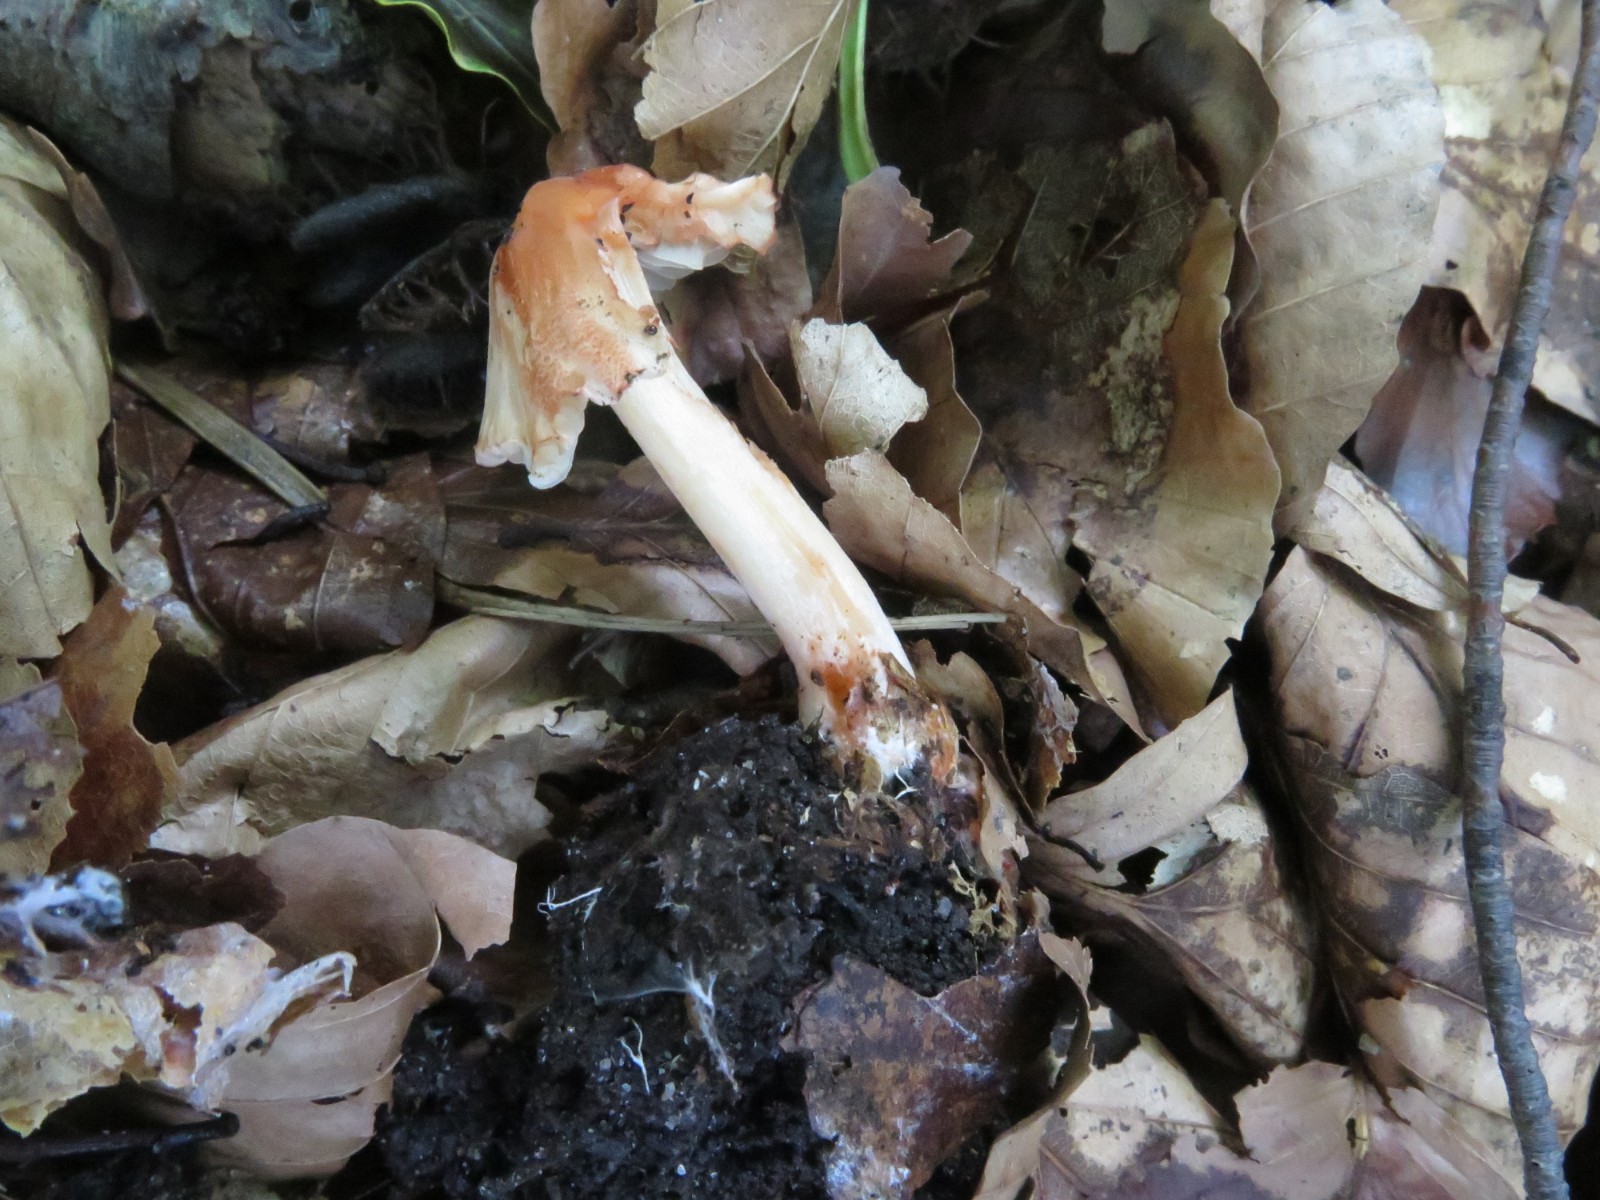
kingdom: Fungi
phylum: Basidiomycota
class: Agaricomycetes
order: Agaricales
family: Inocybaceae
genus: Inocybe
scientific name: Inocybe godeyi
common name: orangerødmende trævlhat
